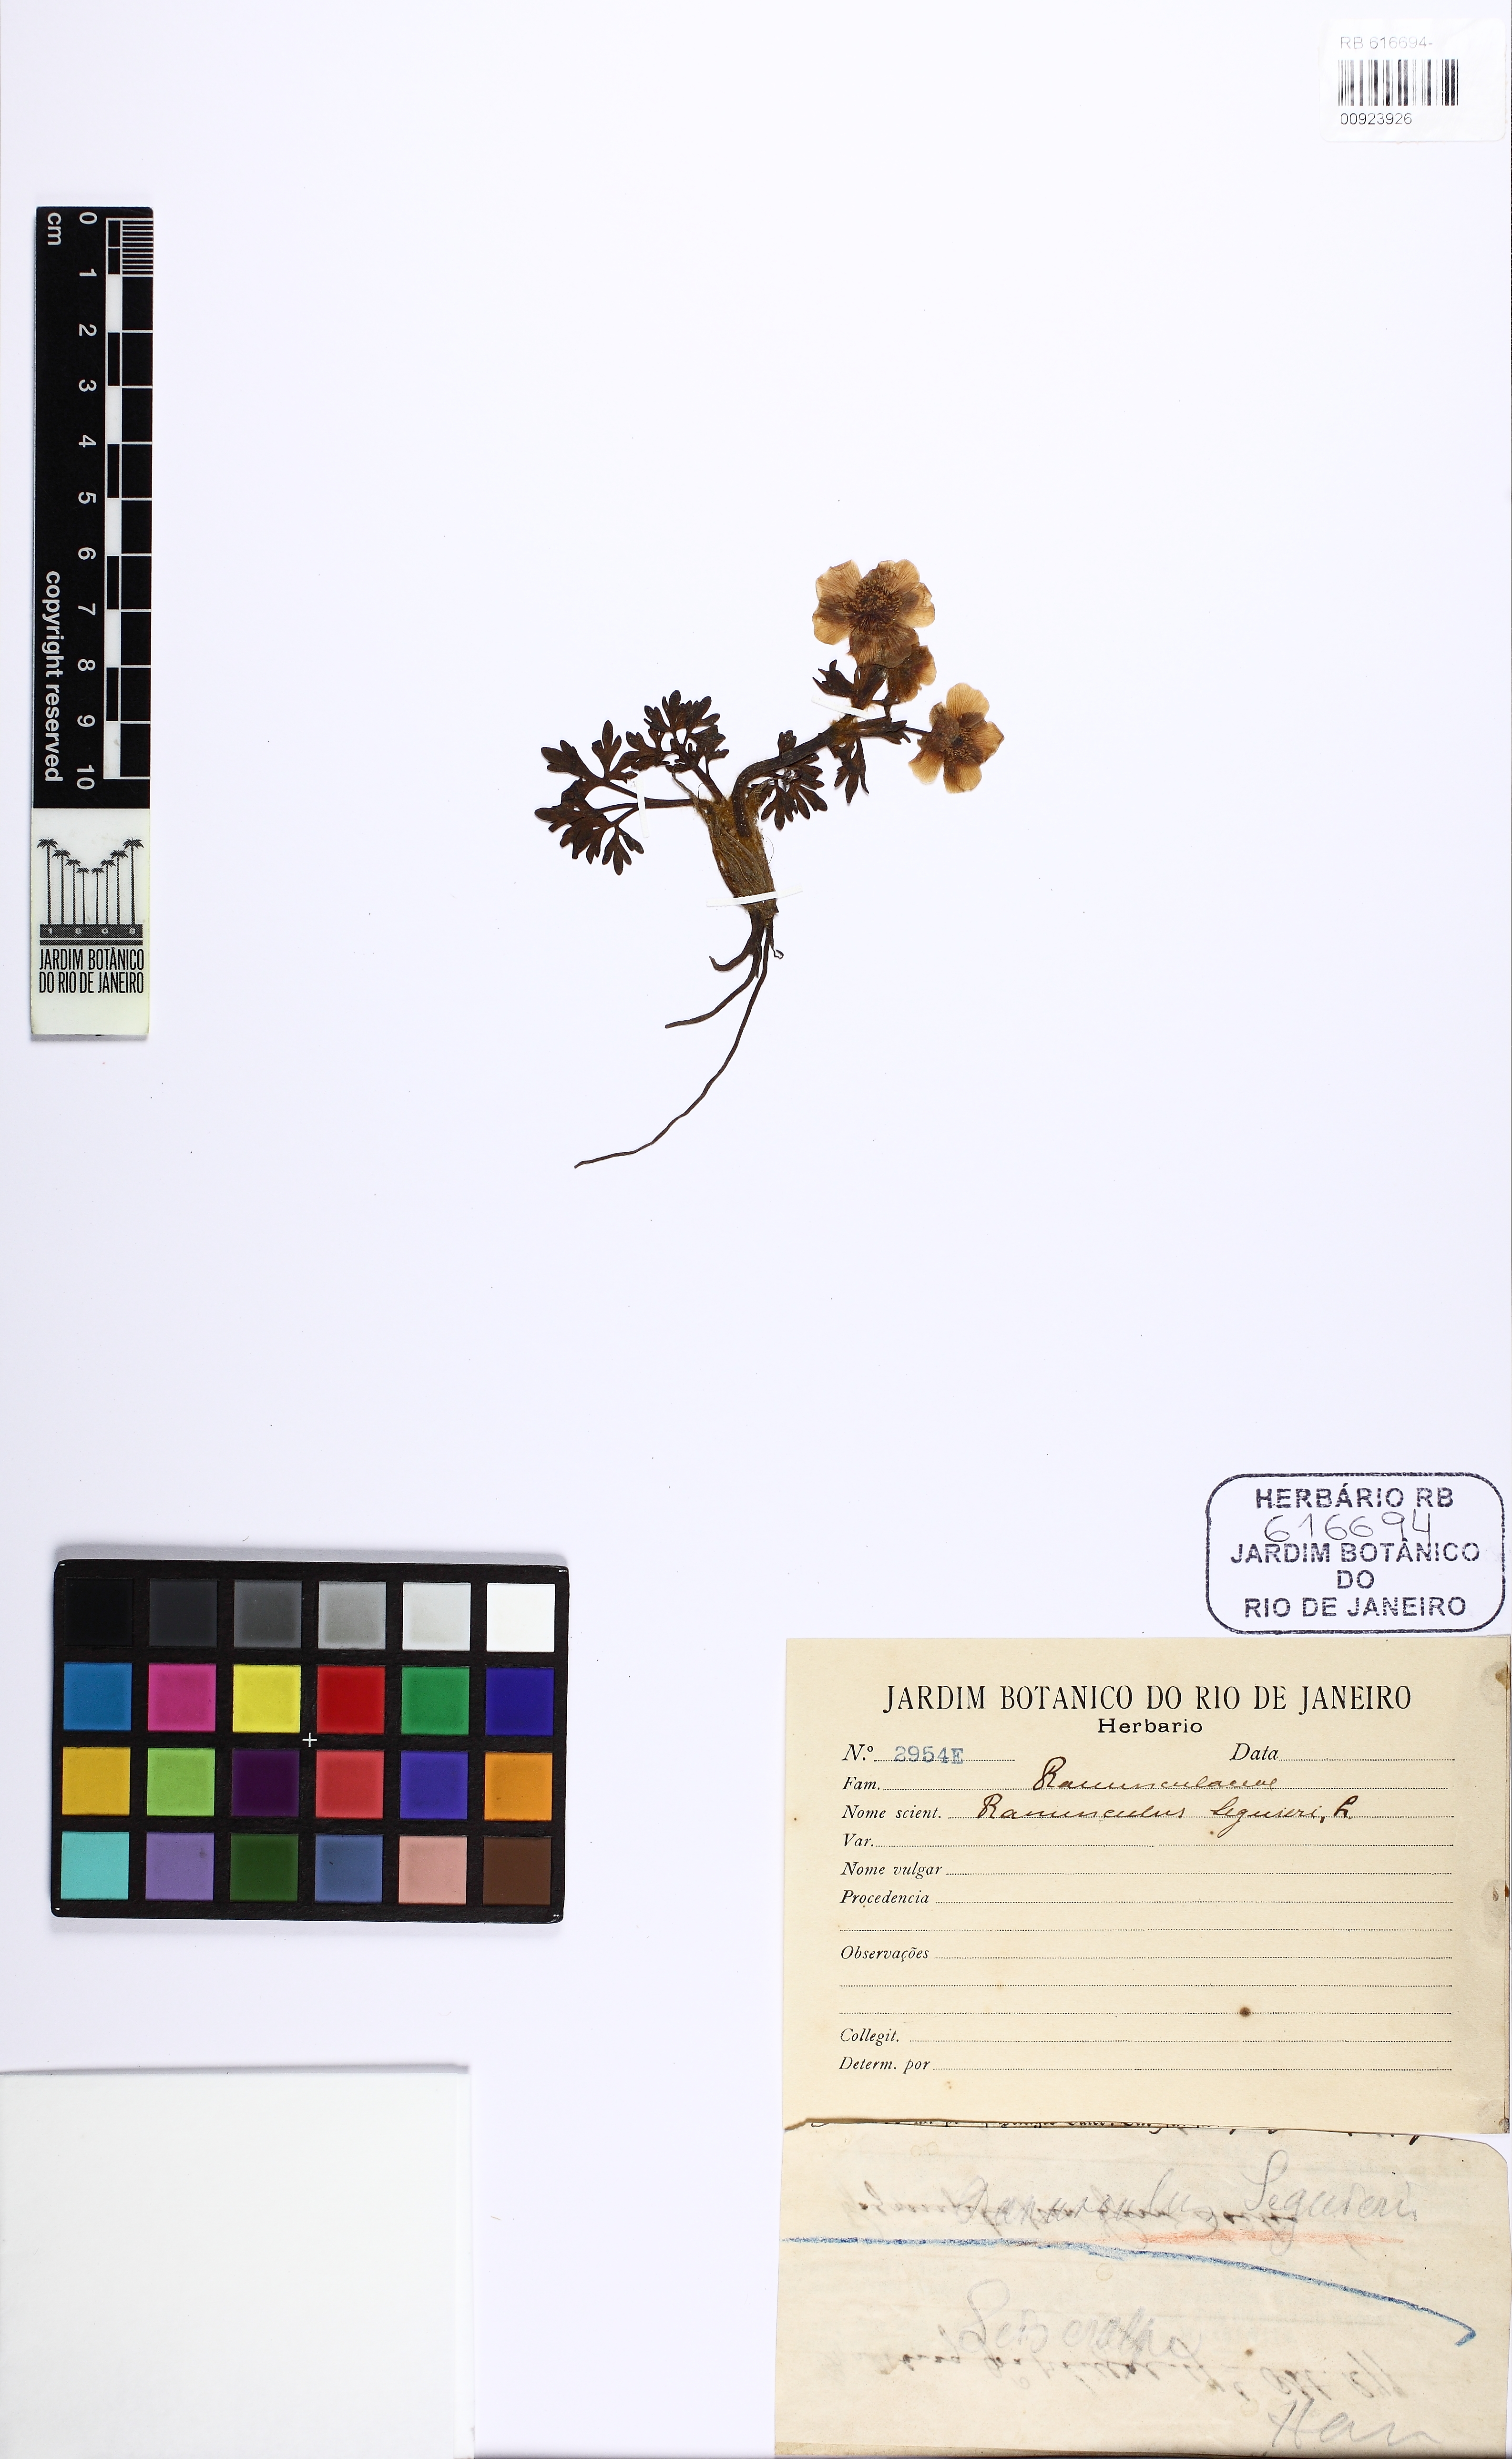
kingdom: Plantae
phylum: Tracheophyta
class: Magnoliopsida
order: Ranunculales
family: Ranunculaceae
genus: Ranunculus
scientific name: Ranunculus seguieri
